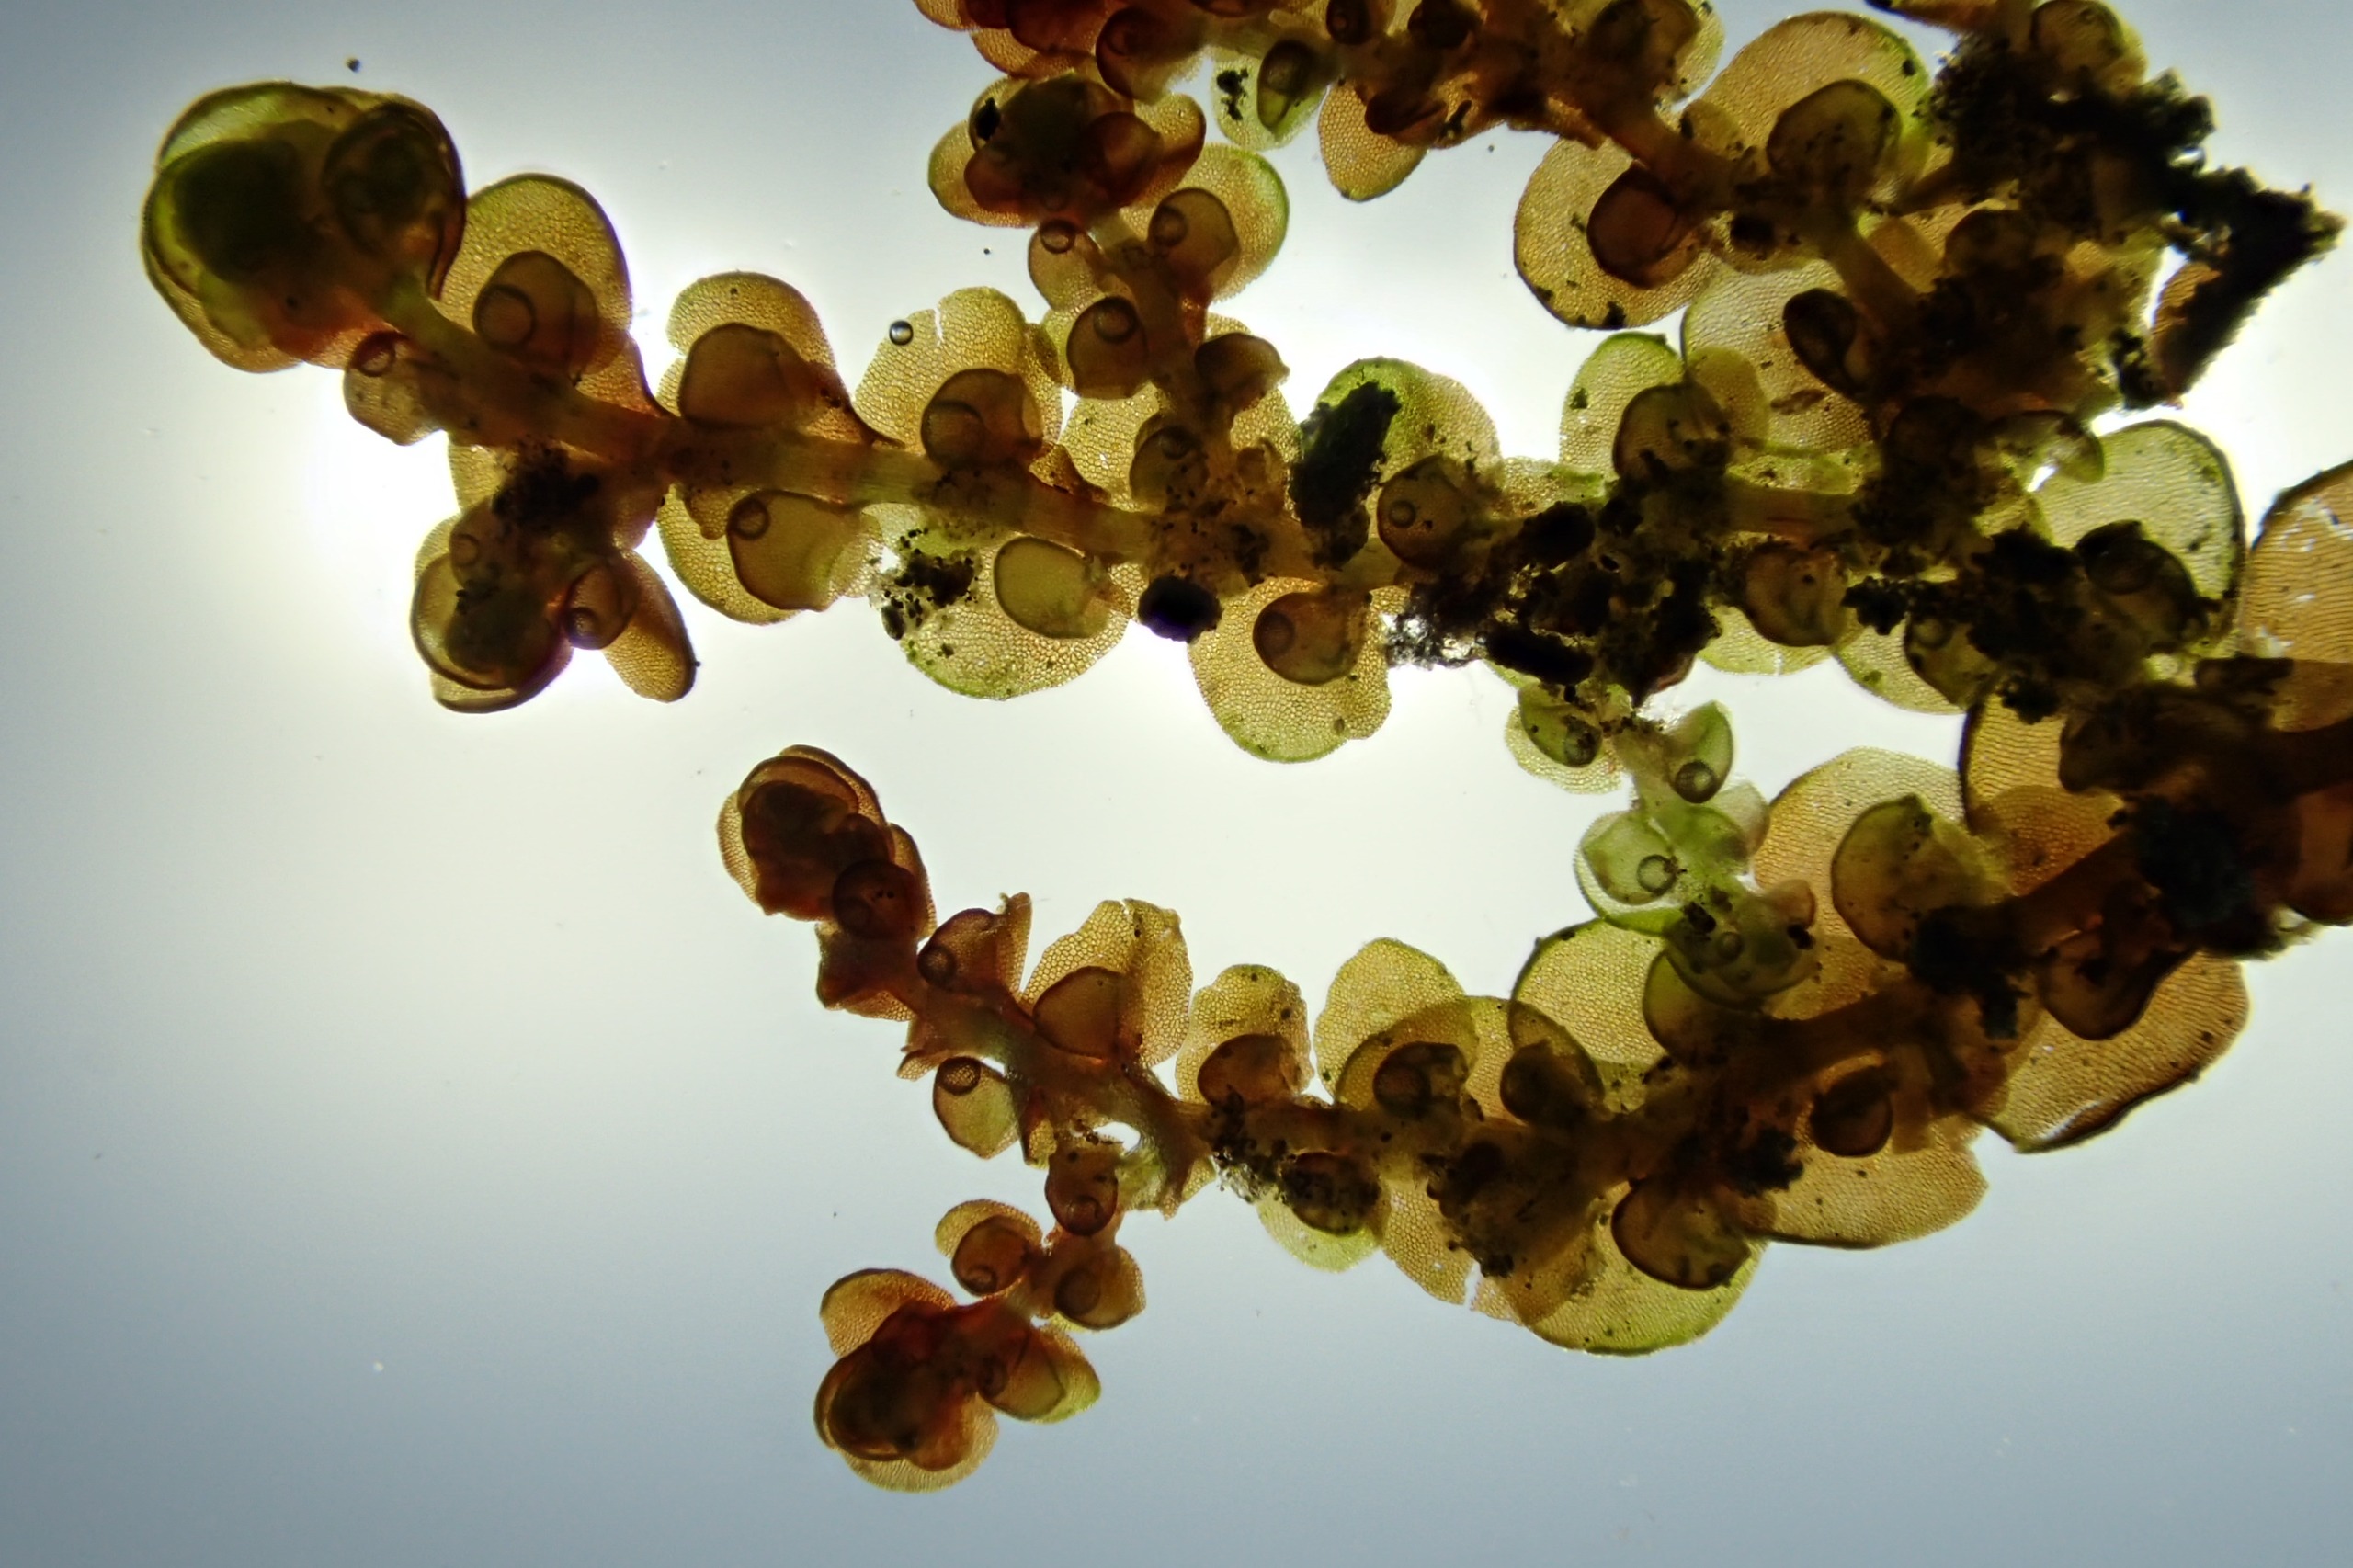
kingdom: Plantae
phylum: Marchantiophyta
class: Jungermanniopsida
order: Porellales
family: Frullaniaceae
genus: Frullania
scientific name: Frullania dilatata
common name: Mat bronzemos
